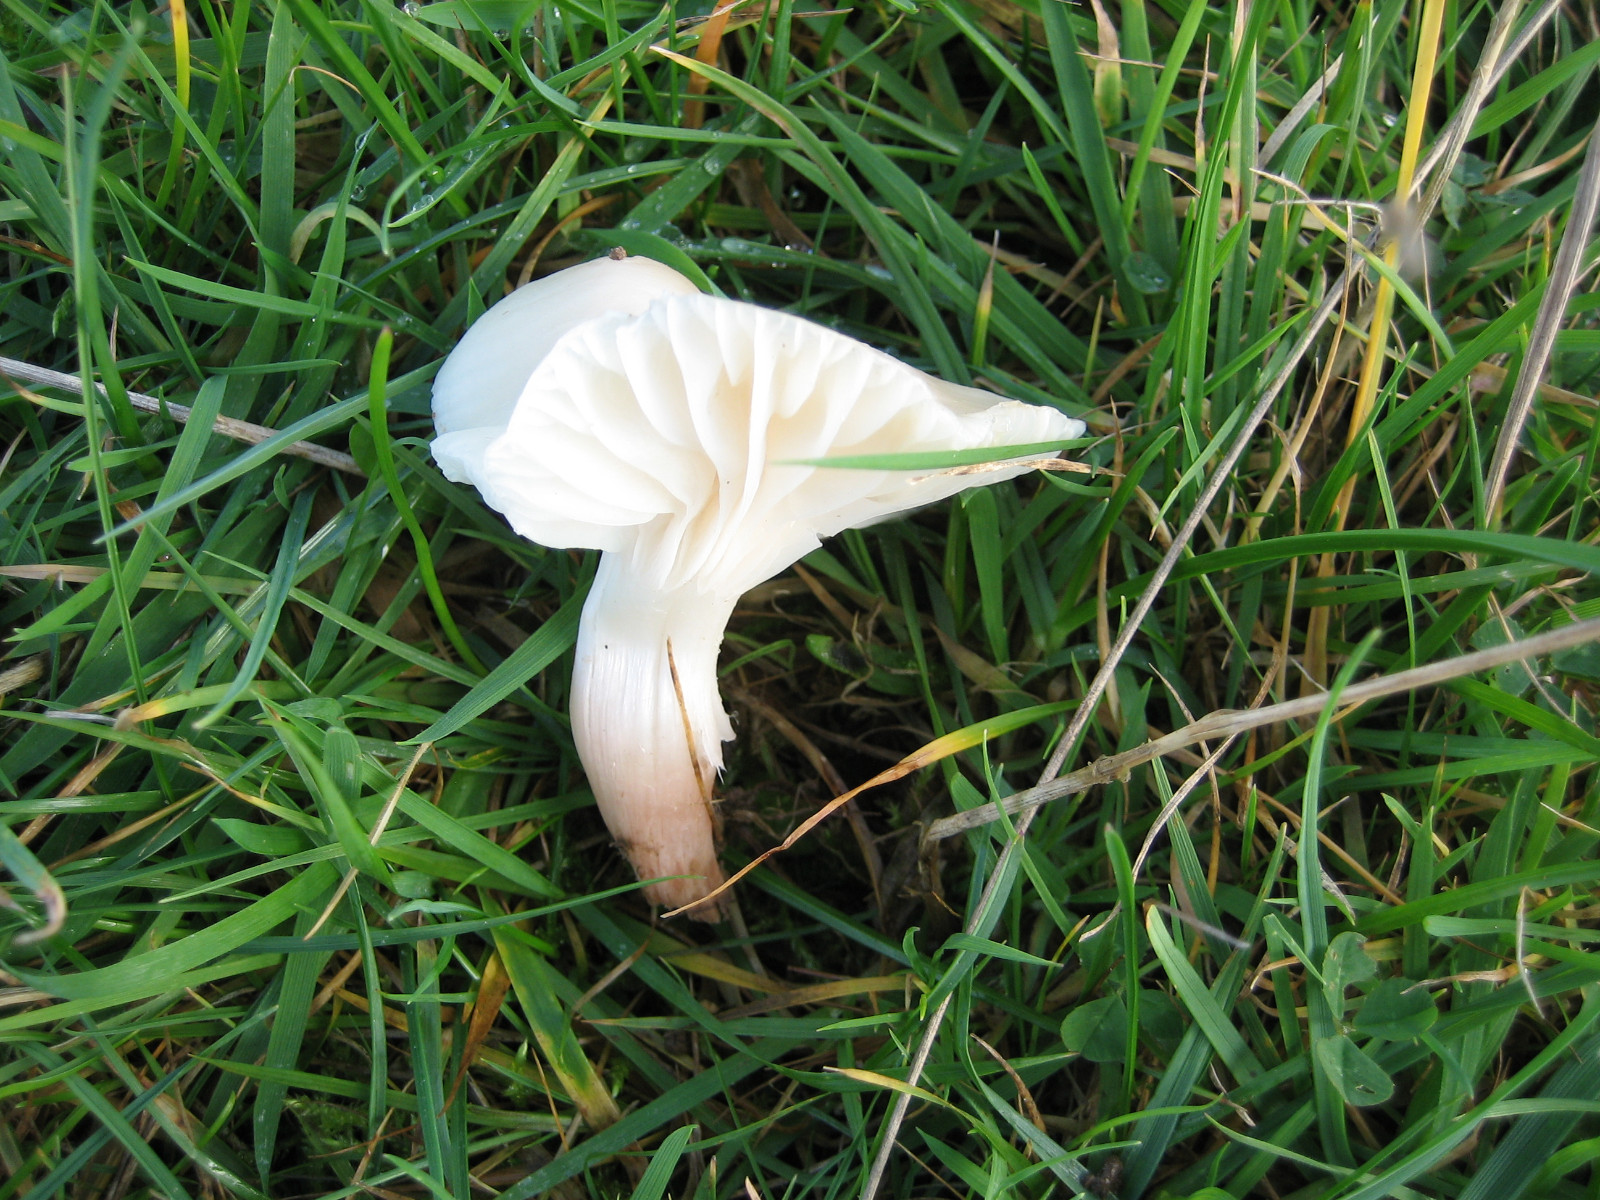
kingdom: Fungi
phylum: Basidiomycota
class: Agaricomycetes
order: Agaricales
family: Hygrophoraceae
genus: Cuphophyllus
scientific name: Cuphophyllus virgineus
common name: snehvid vokshat
